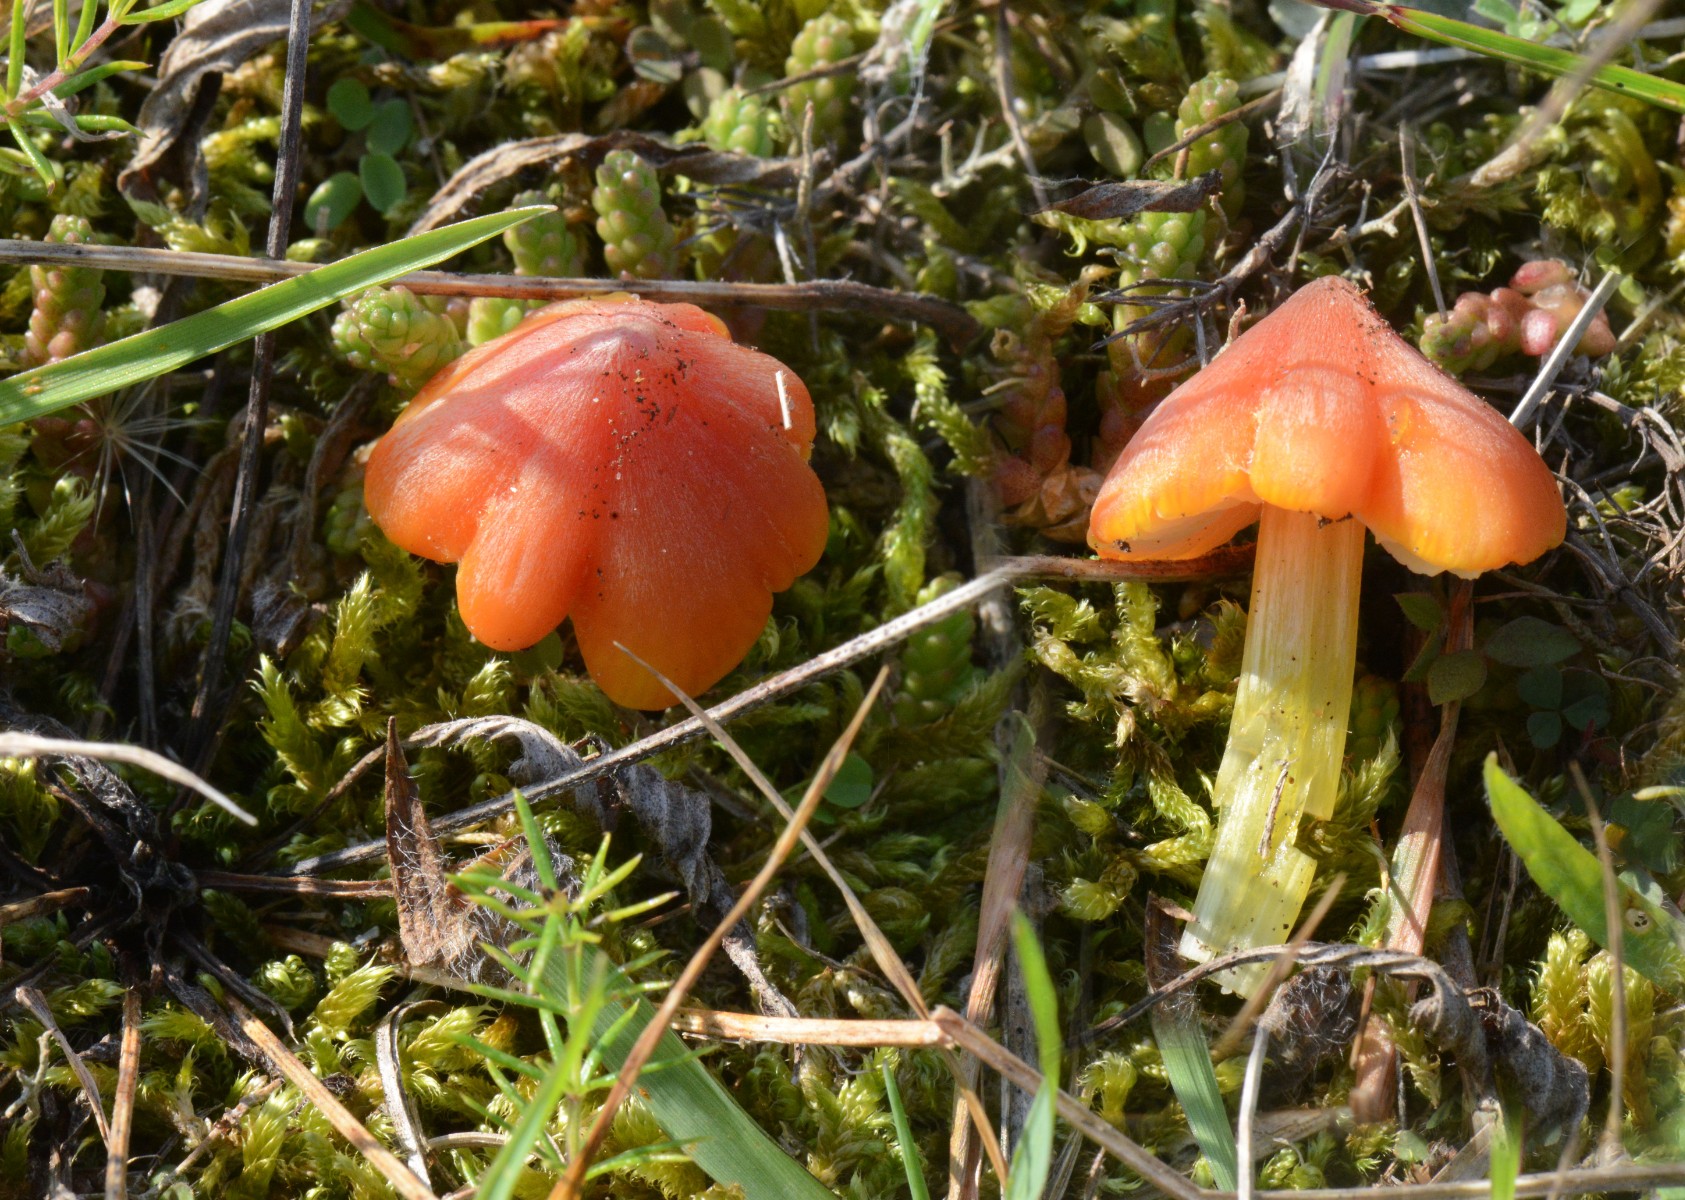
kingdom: Fungi
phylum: Basidiomycota
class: Agaricomycetes
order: Agaricales
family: Hygrophoraceae
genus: Hygrocybe
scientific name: Hygrocybe conicoides
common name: klit-vokshat
